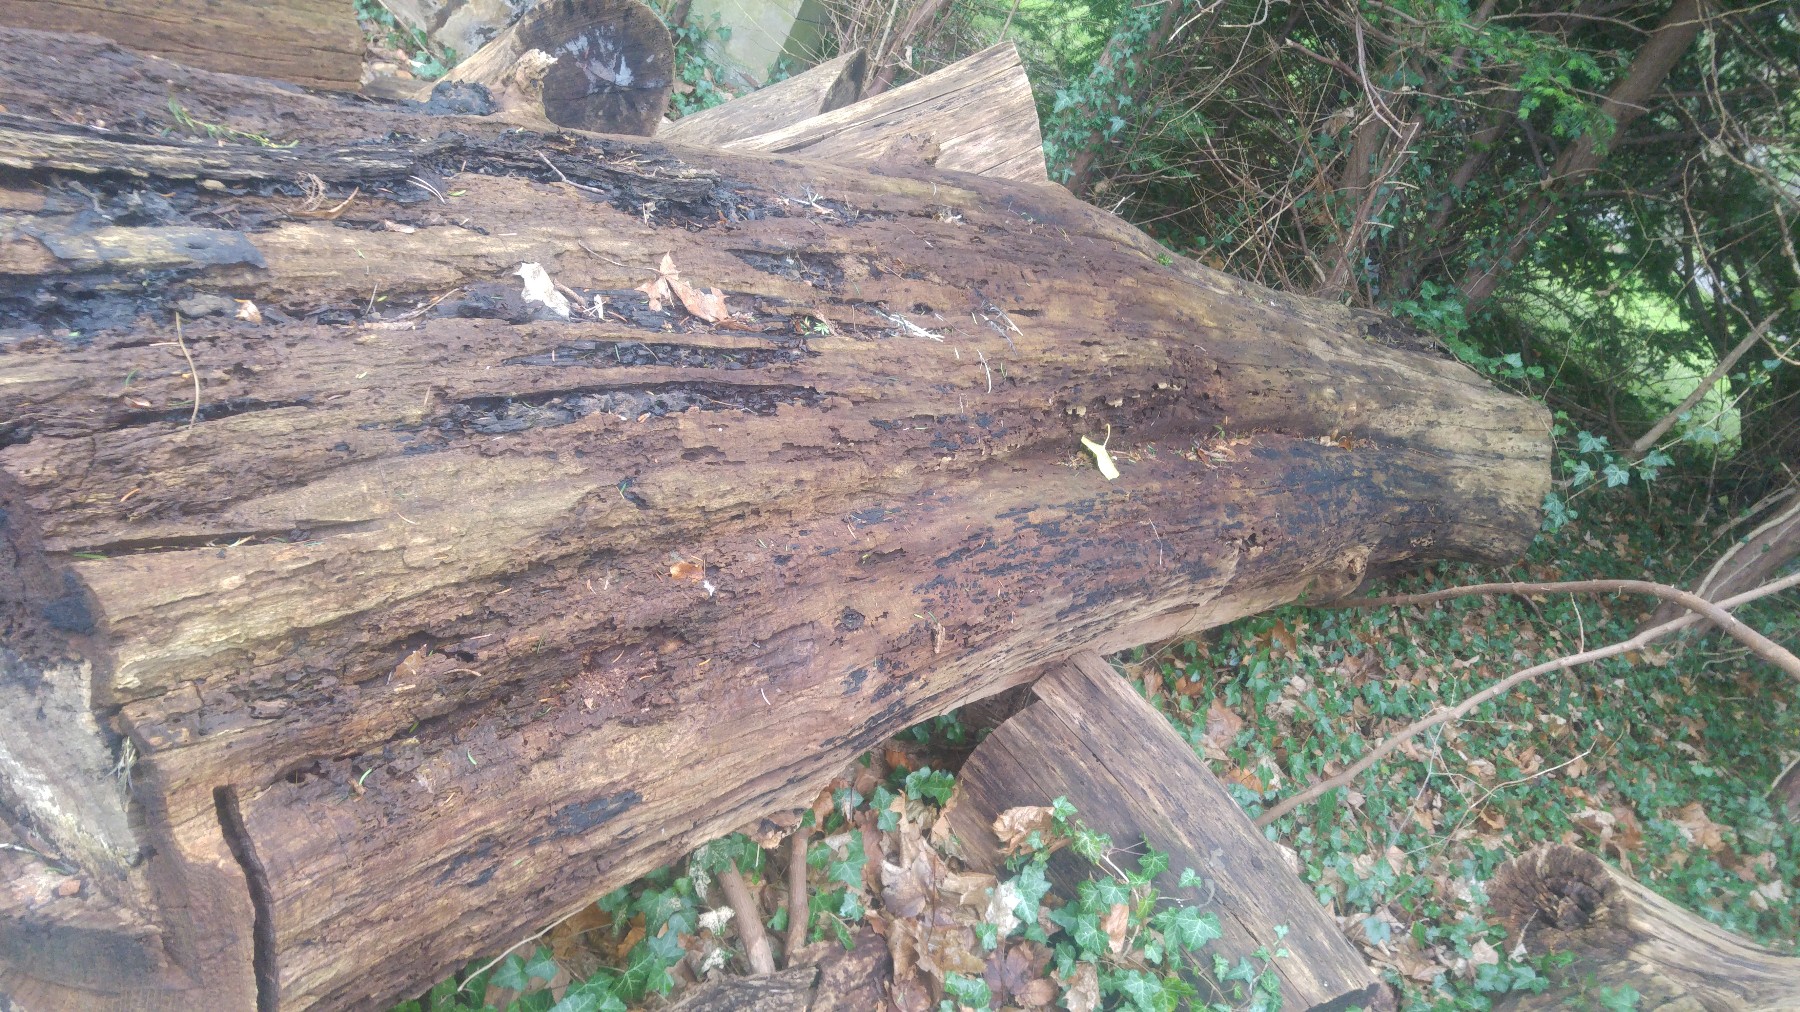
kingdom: Fungi
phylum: Basidiomycota
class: Agaricomycetes
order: Polyporales
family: Polyporaceae
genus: Ganoderma
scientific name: Ganoderma
